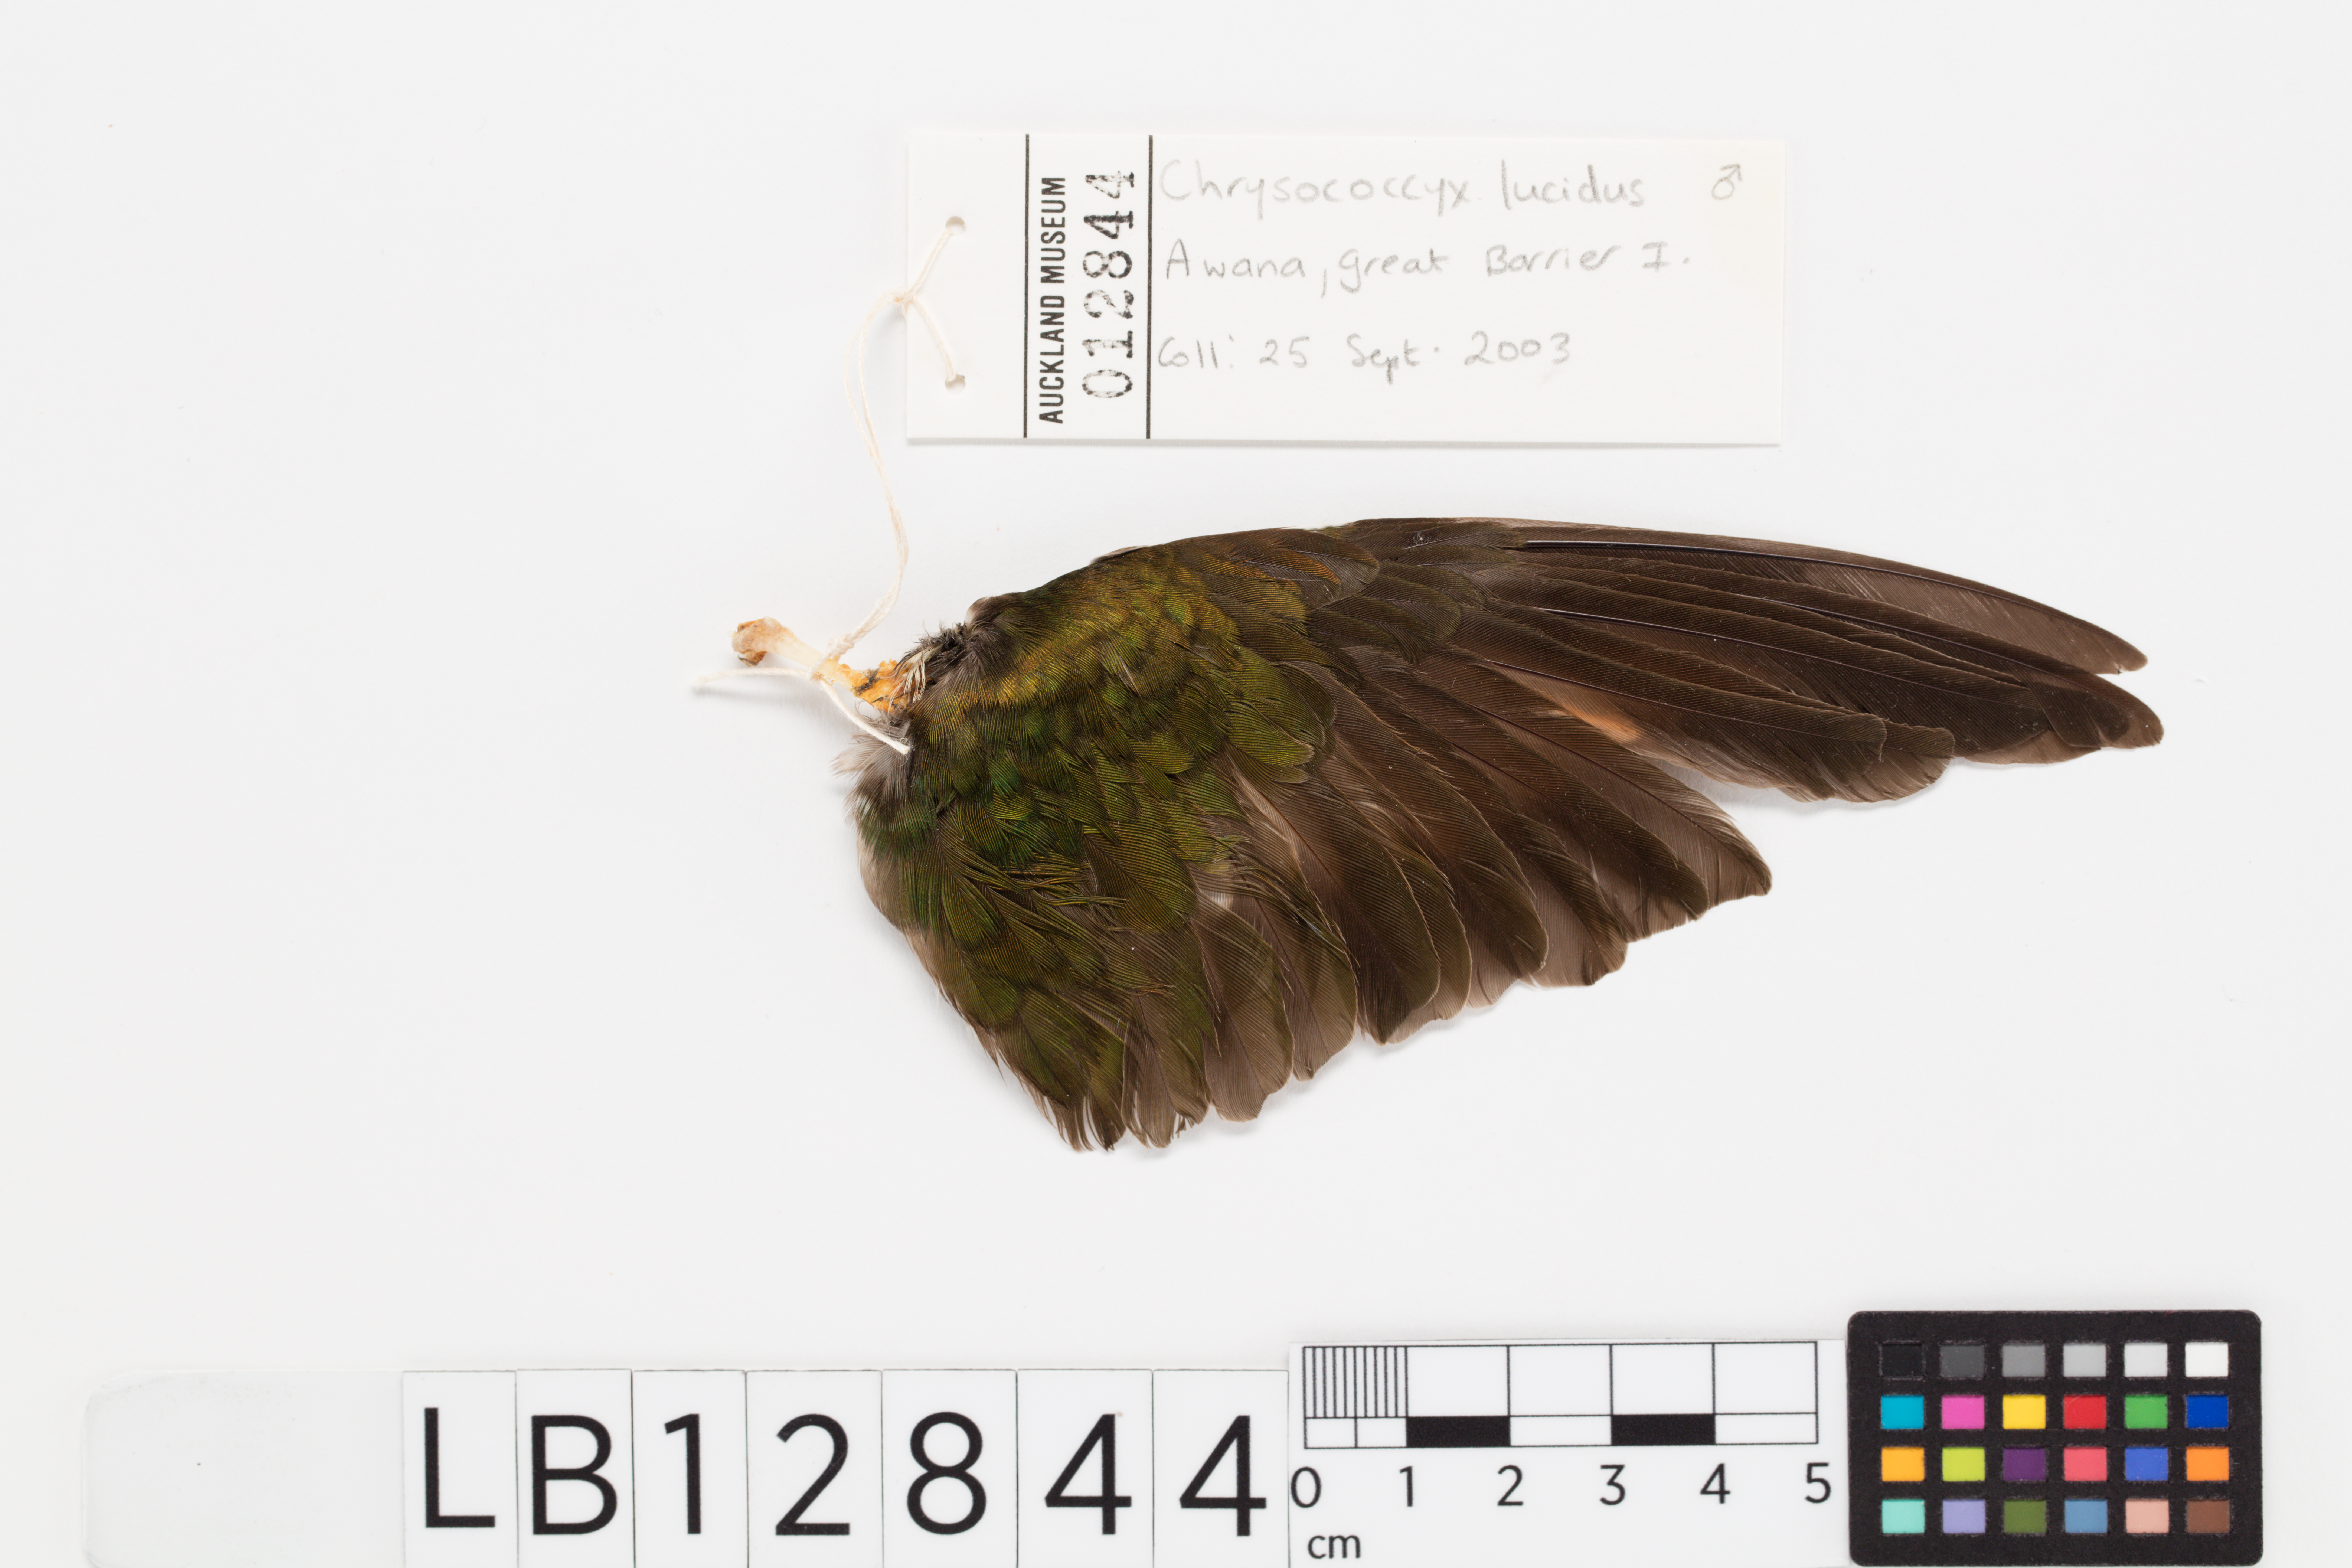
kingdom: Animalia
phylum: Chordata
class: Aves
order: Cuculiformes
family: Cuculidae
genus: Chrysococcyx
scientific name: Chrysococcyx lucidus
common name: Shining bronze cuckoo
